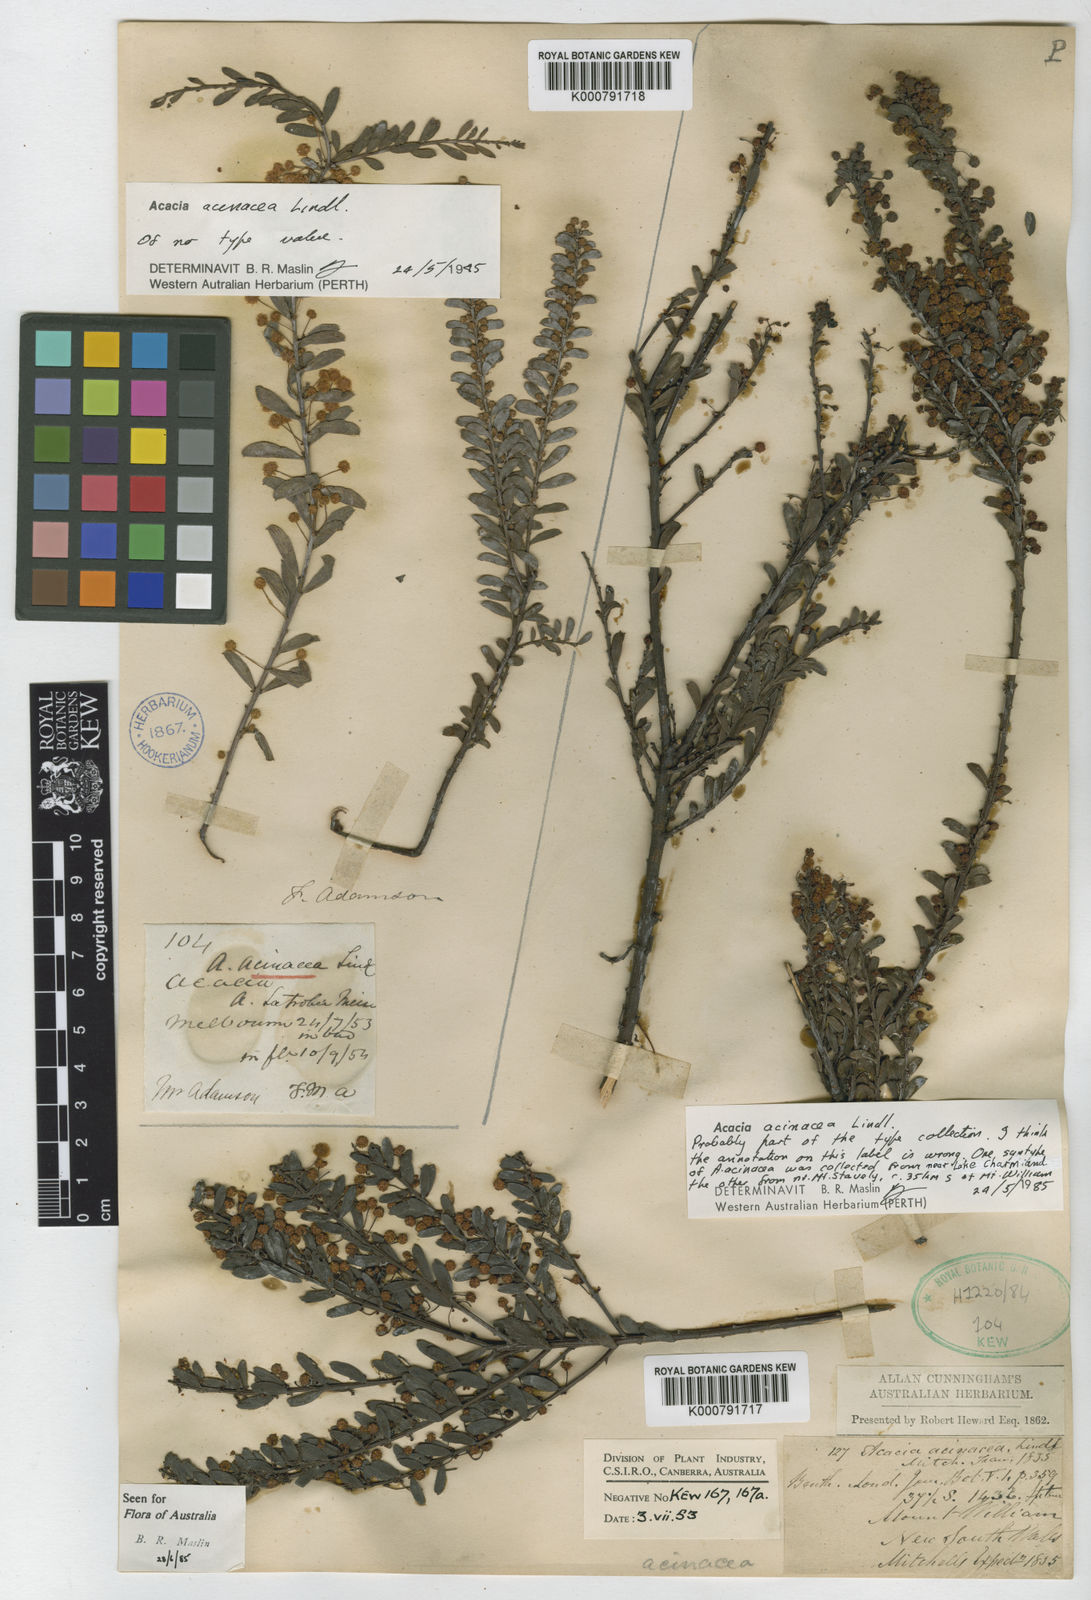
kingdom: Plantae
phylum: Tracheophyta
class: Magnoliopsida
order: Fabales
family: Fabaceae
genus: Acacia
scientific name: Acacia acinacea
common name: Gold-dust acacia
